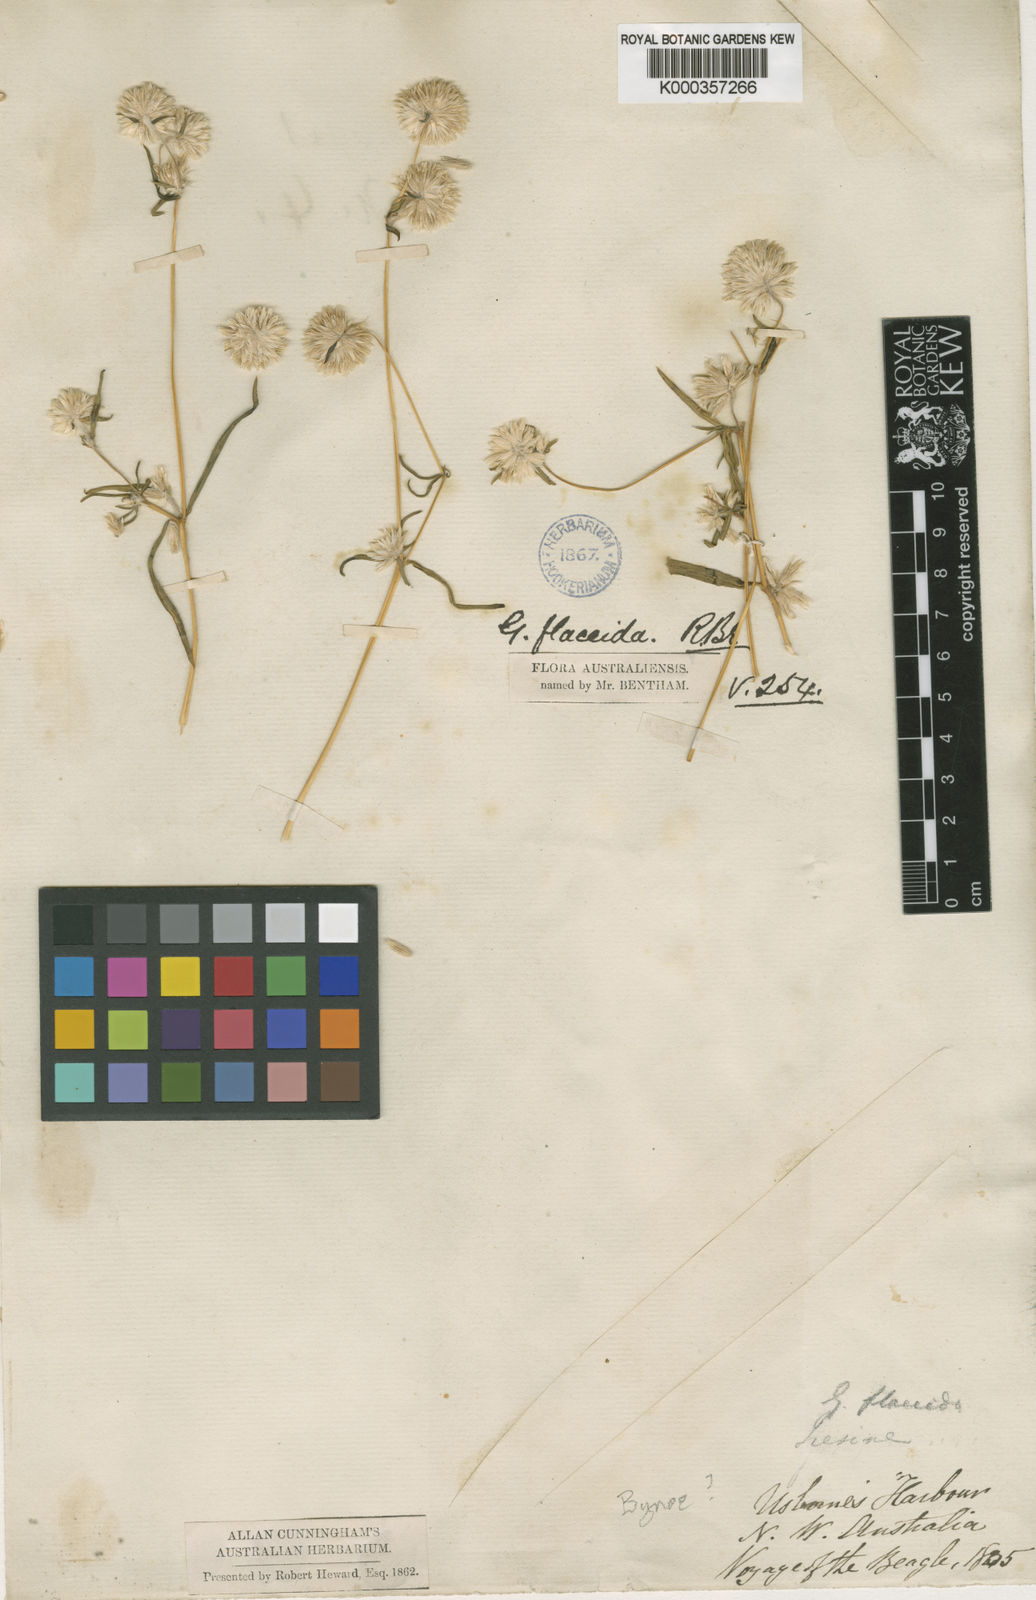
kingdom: Plantae
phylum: Tracheophyta
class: Magnoliopsida
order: Caryophyllales
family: Amaranthaceae
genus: Gomphrena
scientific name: Gomphrena flaccida
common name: Gomphrena-weed
